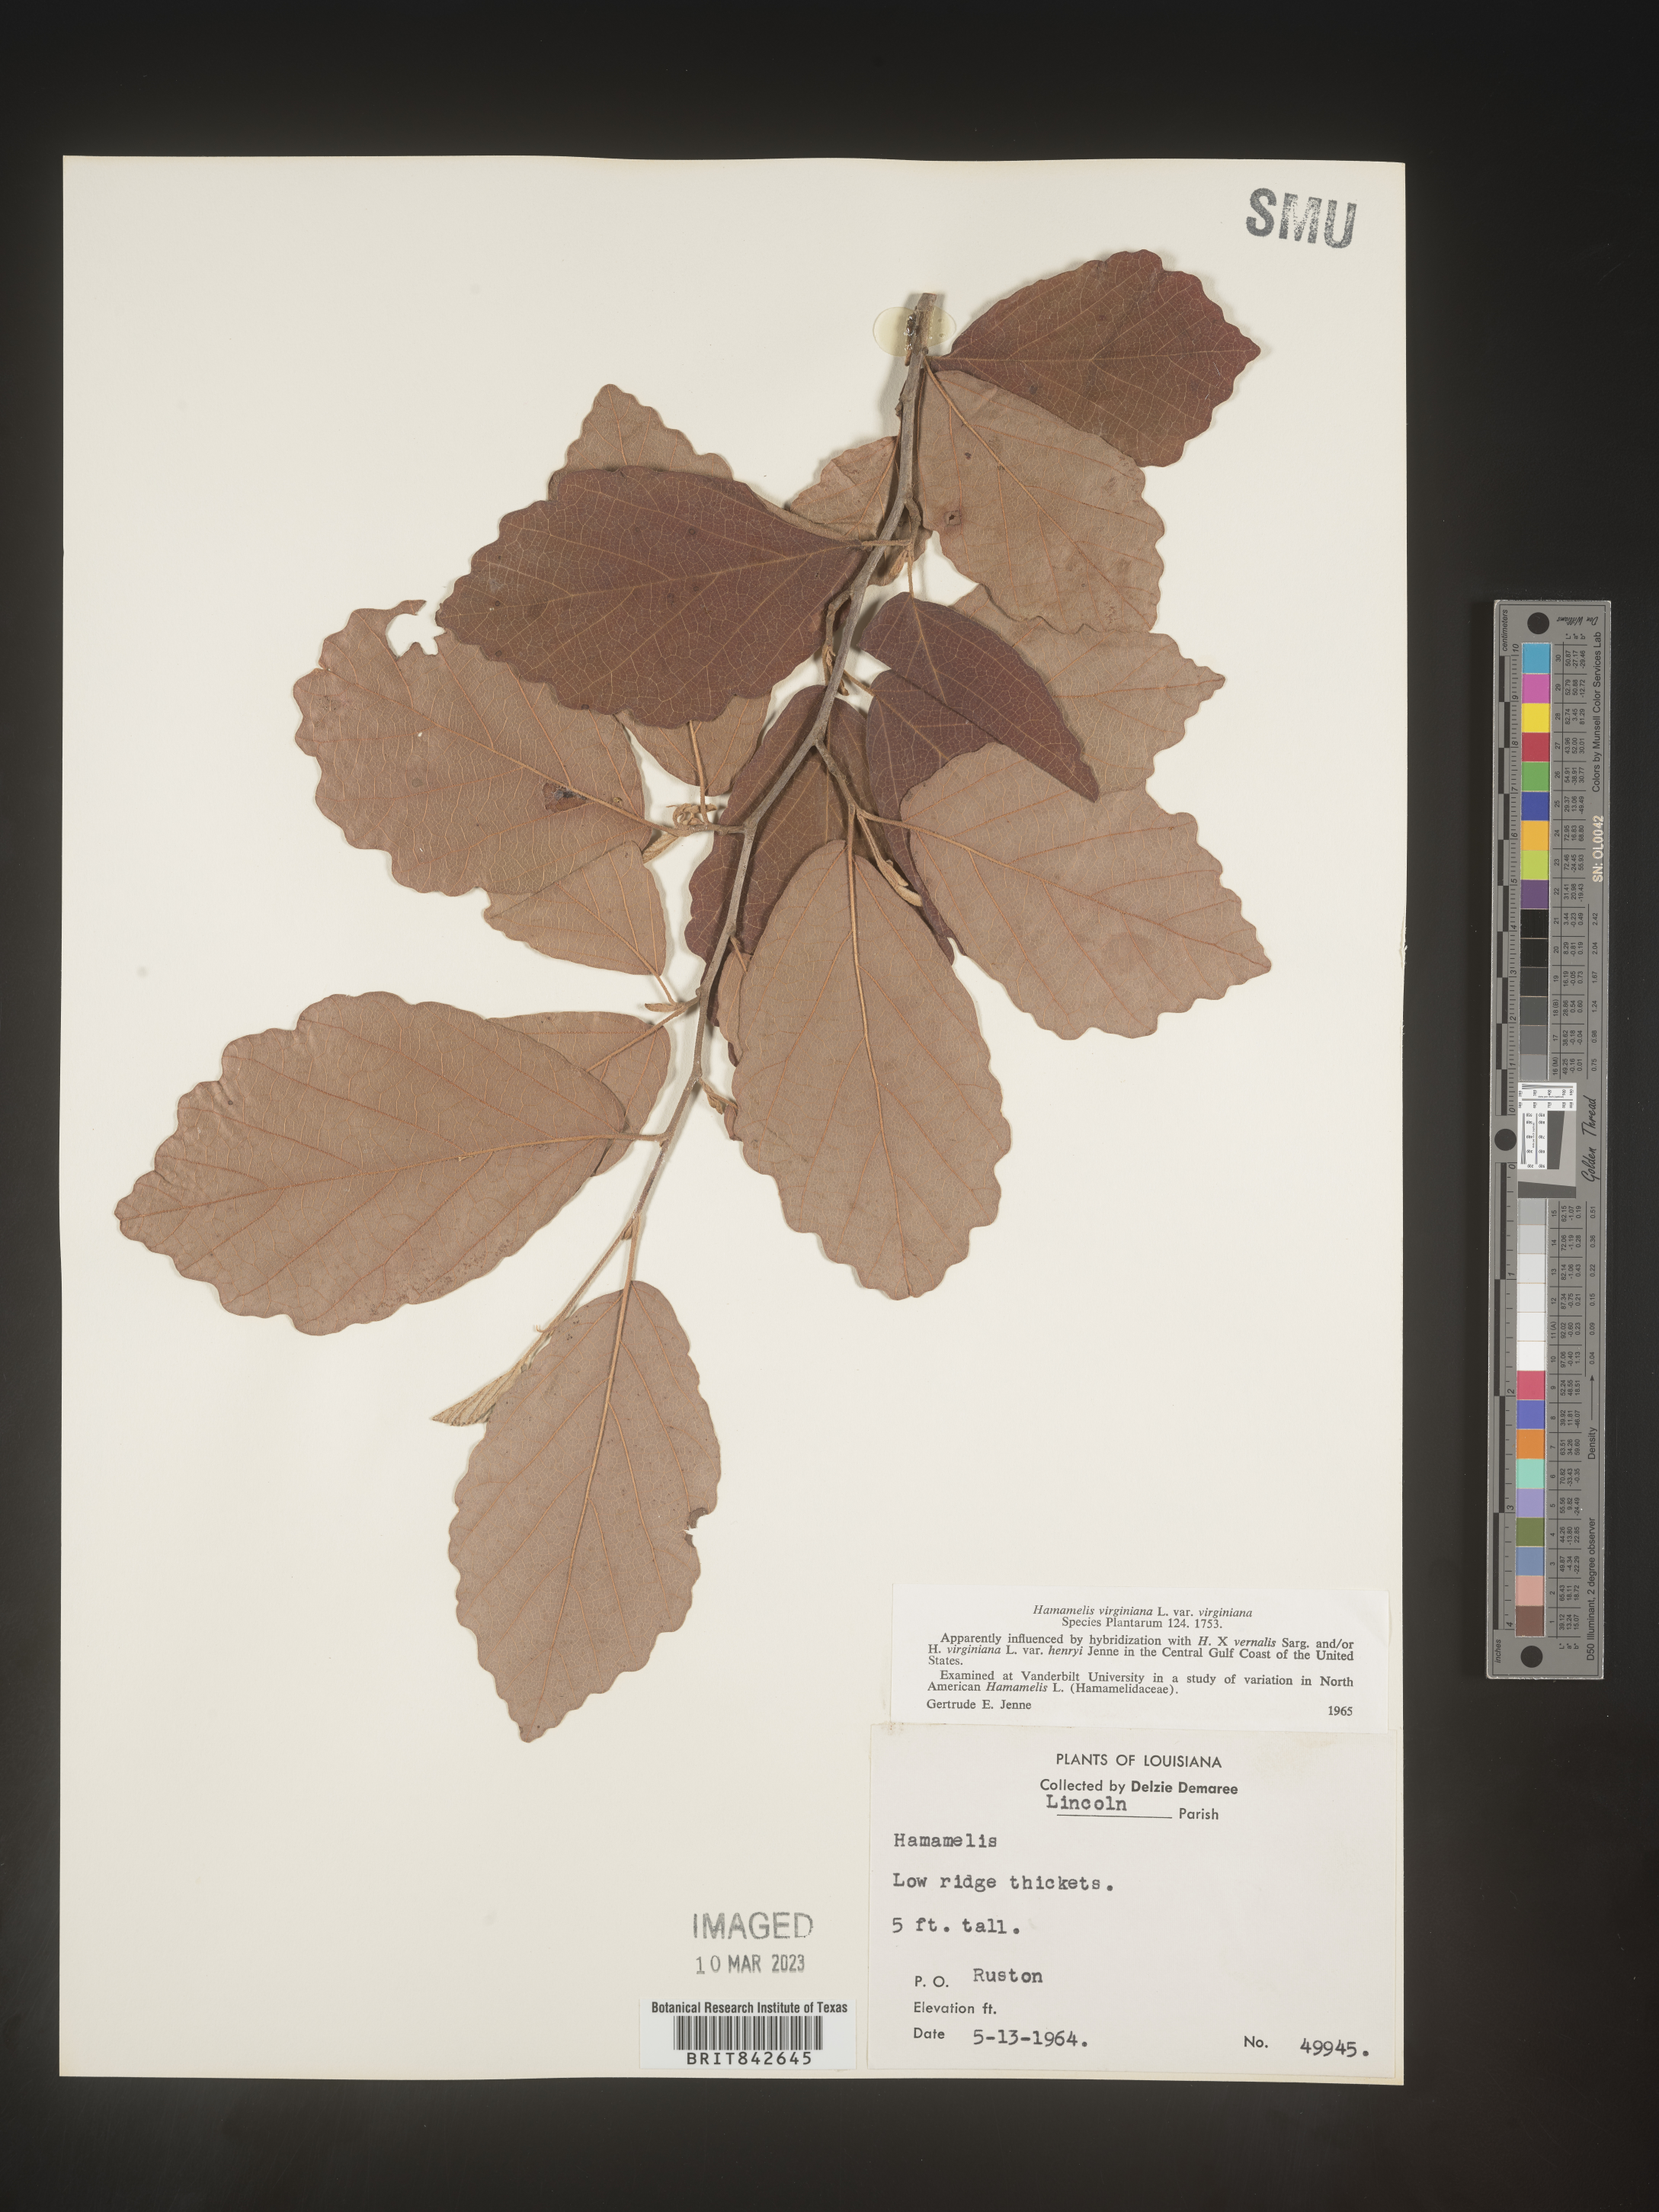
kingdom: Plantae
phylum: Tracheophyta
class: Magnoliopsida
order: Saxifragales
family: Hamamelidaceae
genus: Hamamelis
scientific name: Hamamelis virginiana
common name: Witch-hazel
